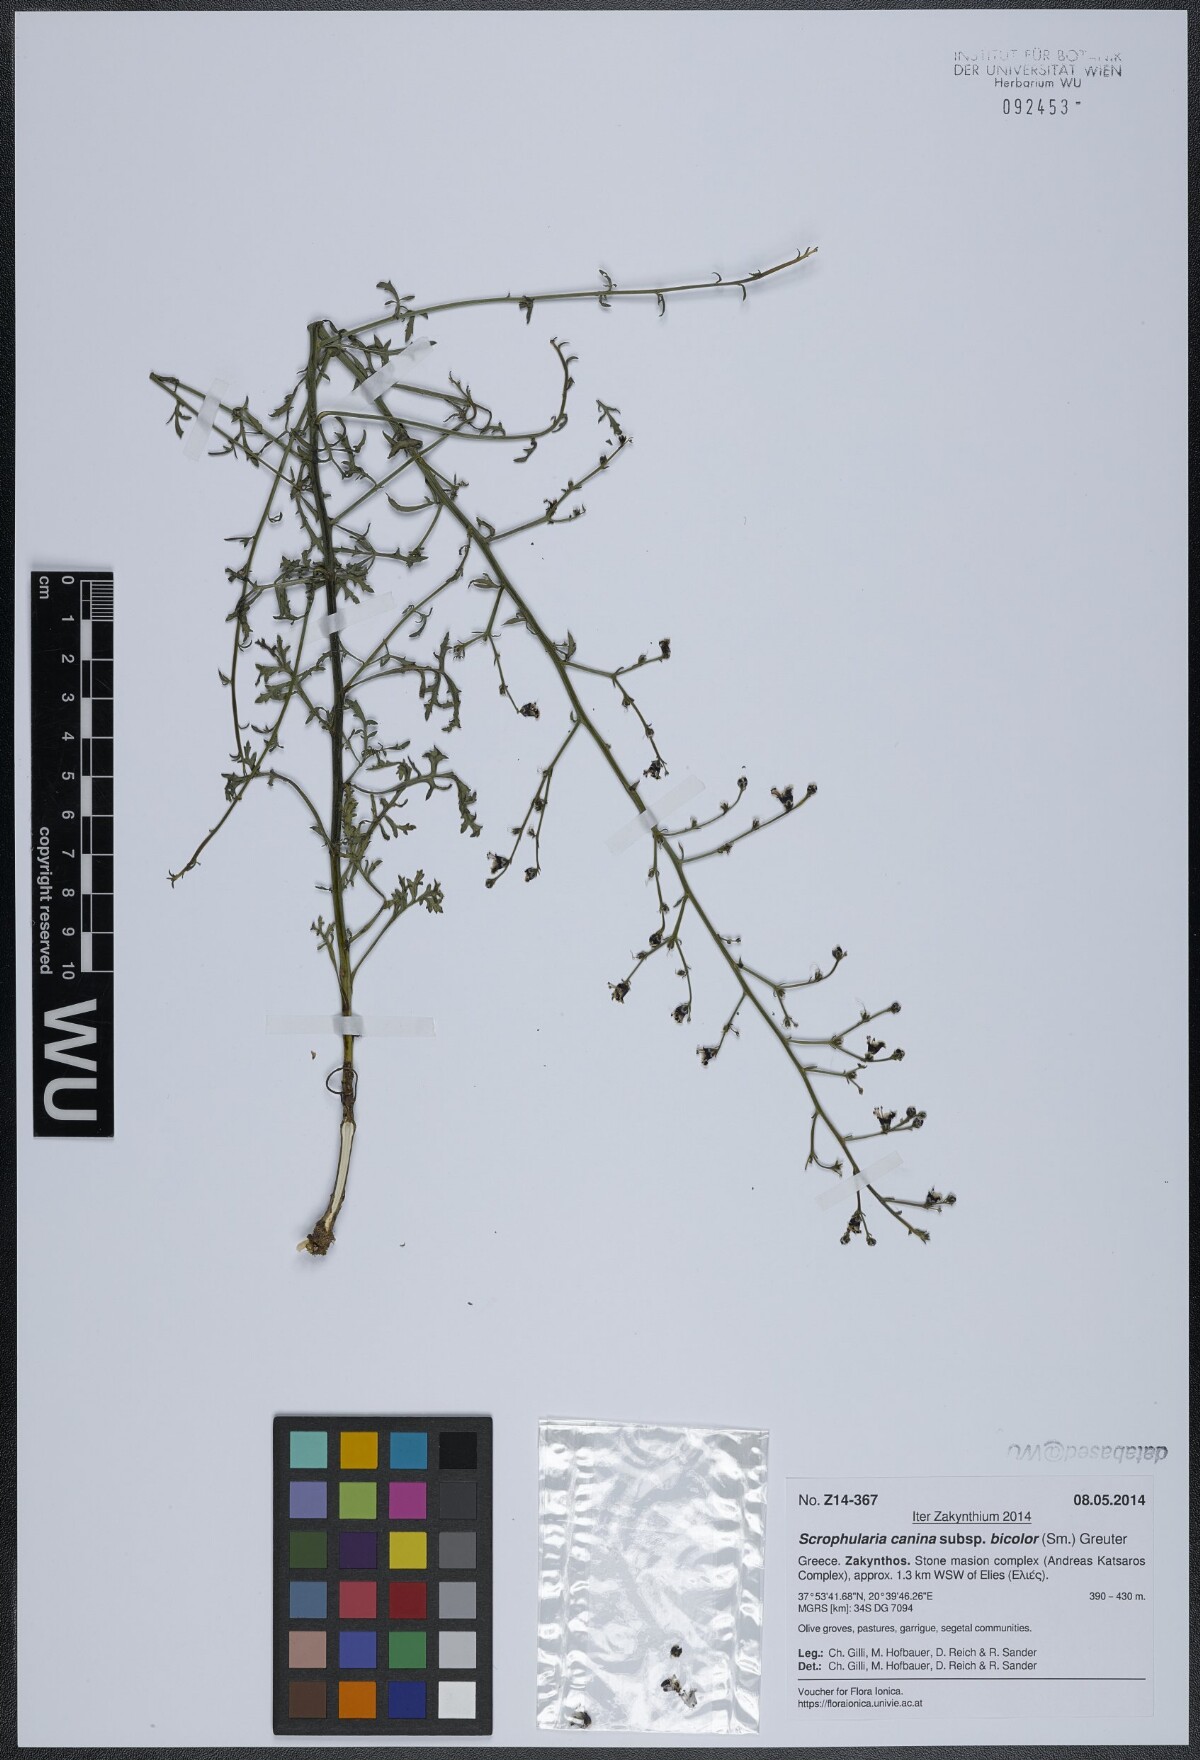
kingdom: Plantae
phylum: Tracheophyta
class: Magnoliopsida
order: Lamiales
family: Scrophulariaceae
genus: Scrophularia
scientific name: Scrophularia canina
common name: French figwort
